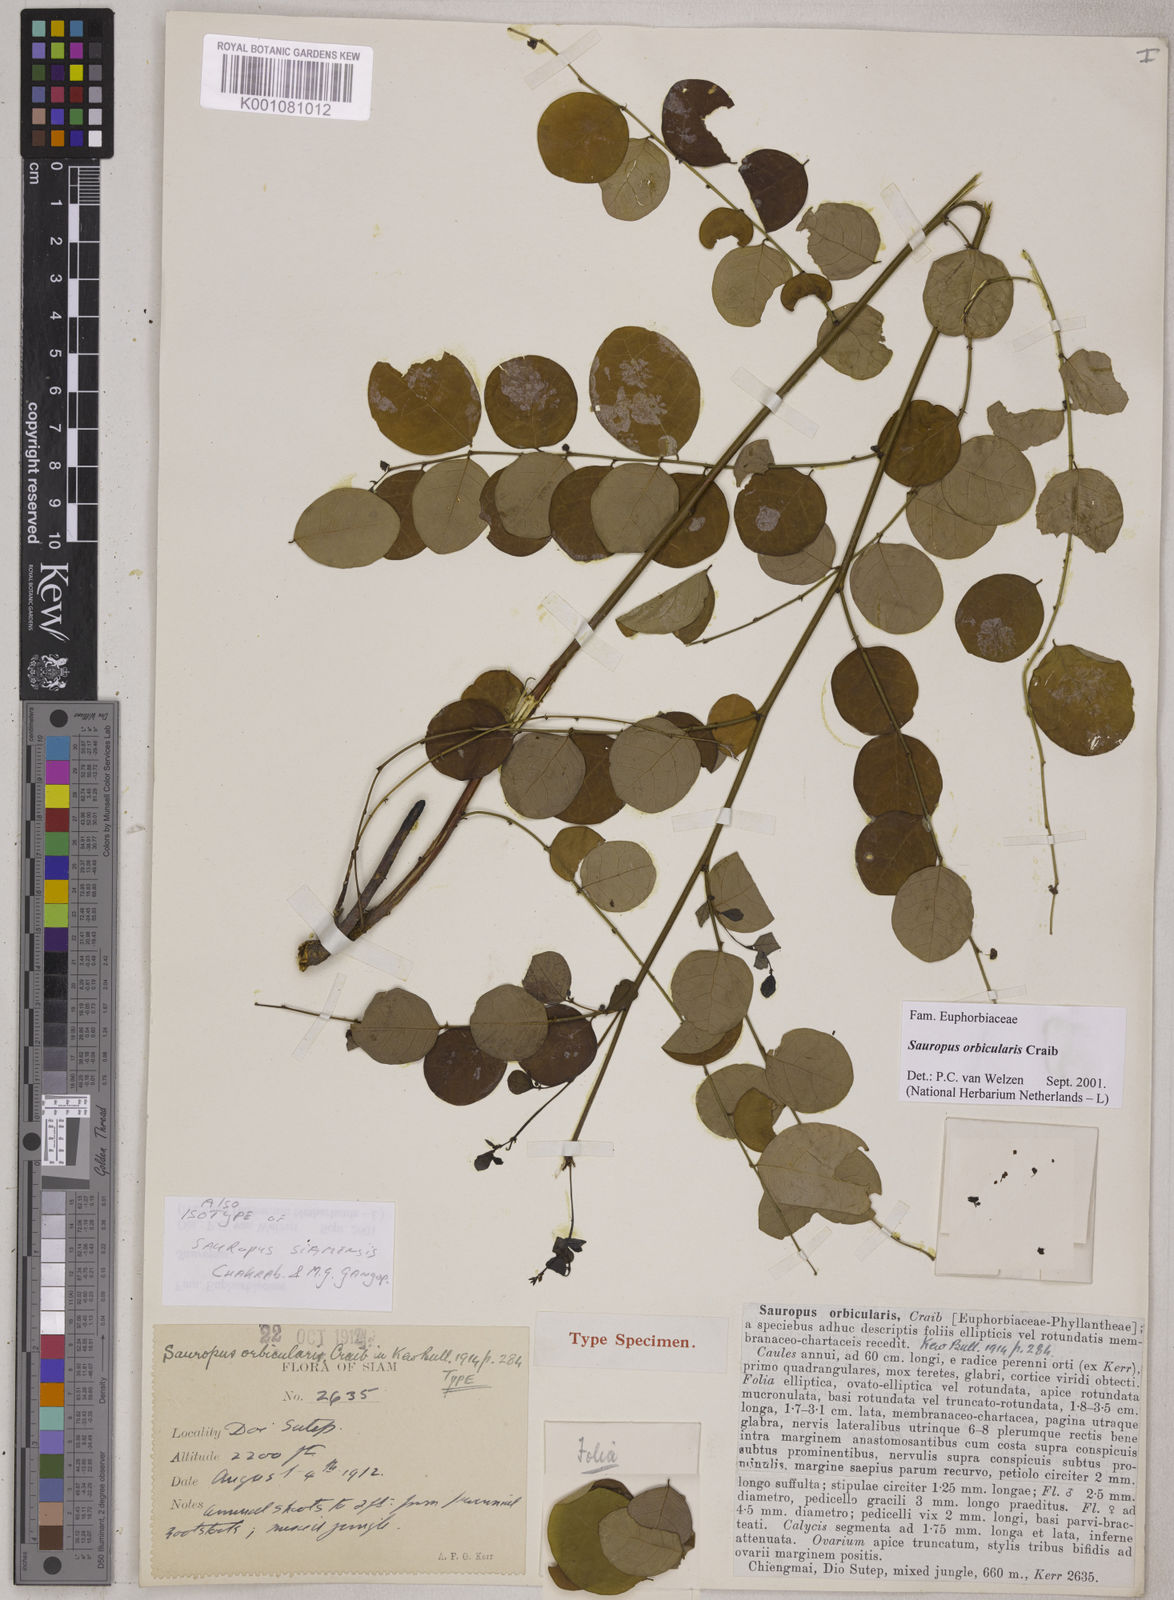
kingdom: Plantae
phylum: Tracheophyta
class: Magnoliopsida
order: Malpighiales
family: Phyllanthaceae
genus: Breynia
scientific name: Breynia orbicularis
